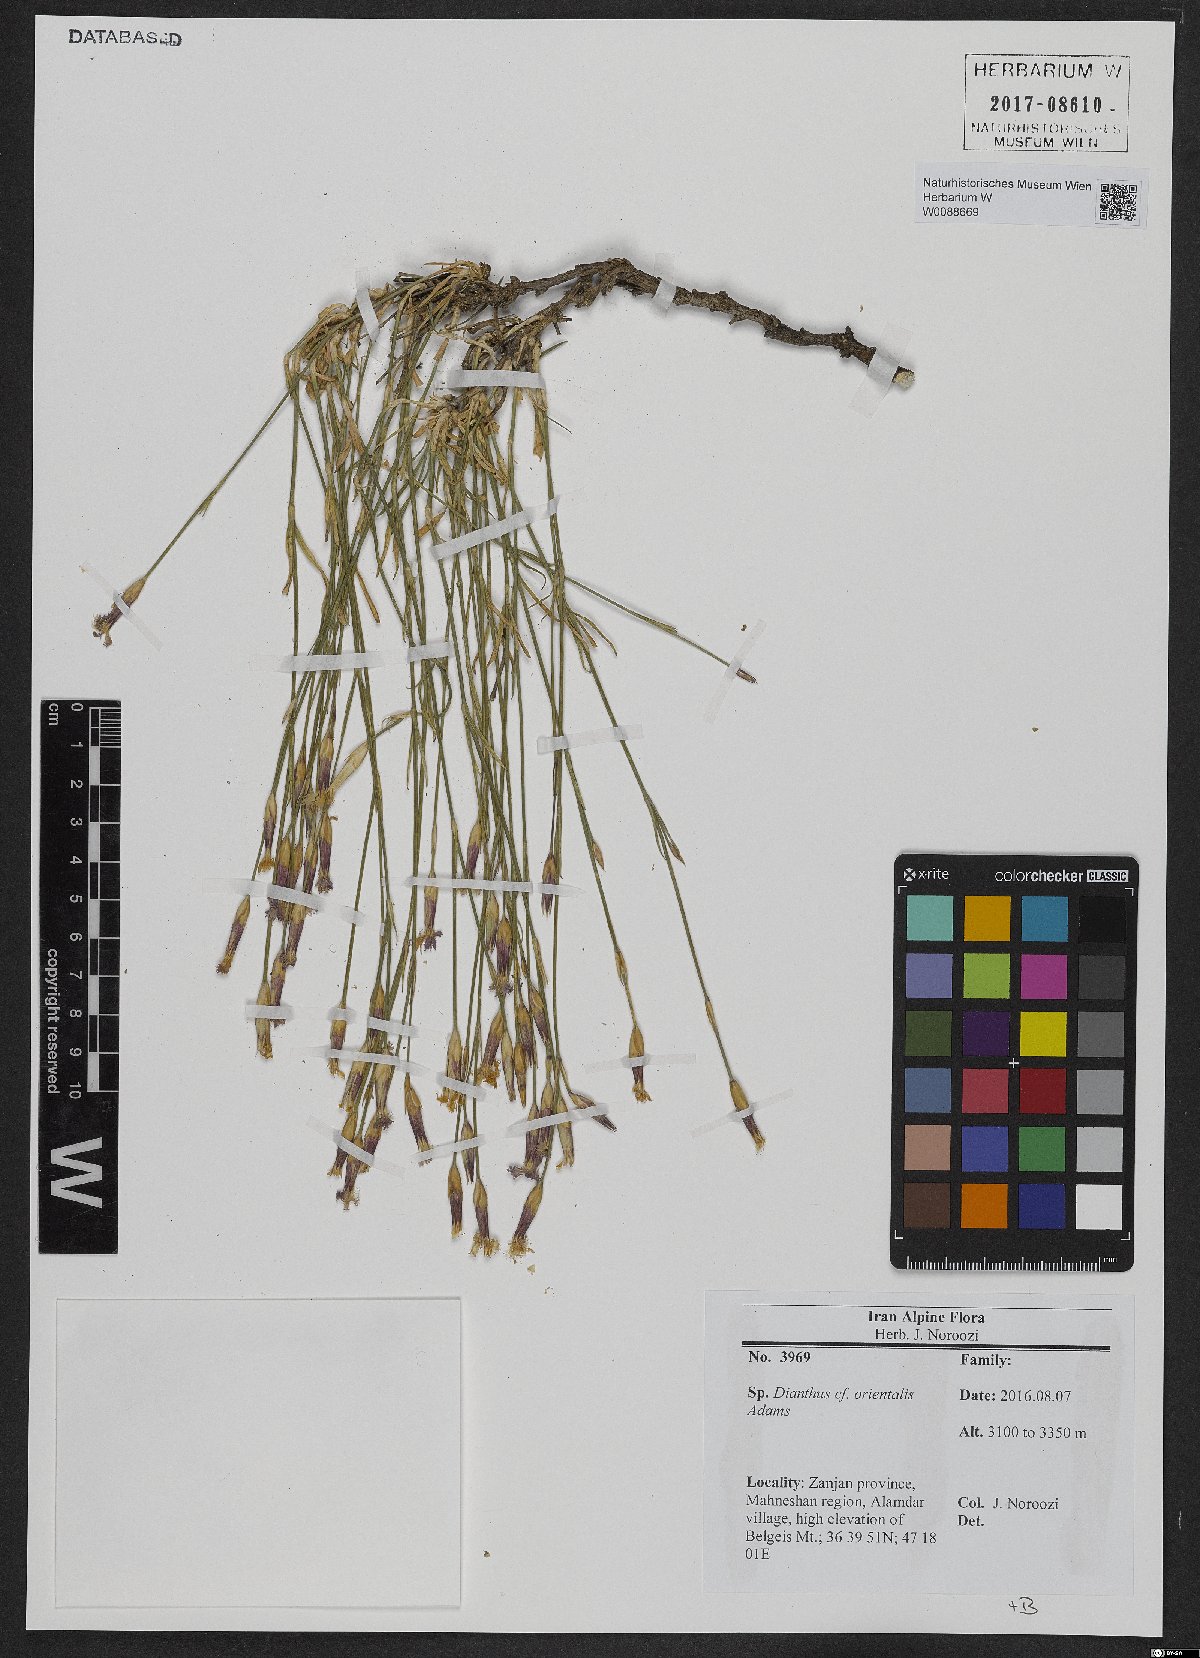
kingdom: Plantae
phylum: Tracheophyta
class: Magnoliopsida
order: Caryophyllales
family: Caryophyllaceae
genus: Dianthus
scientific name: Dianthus orientalis
